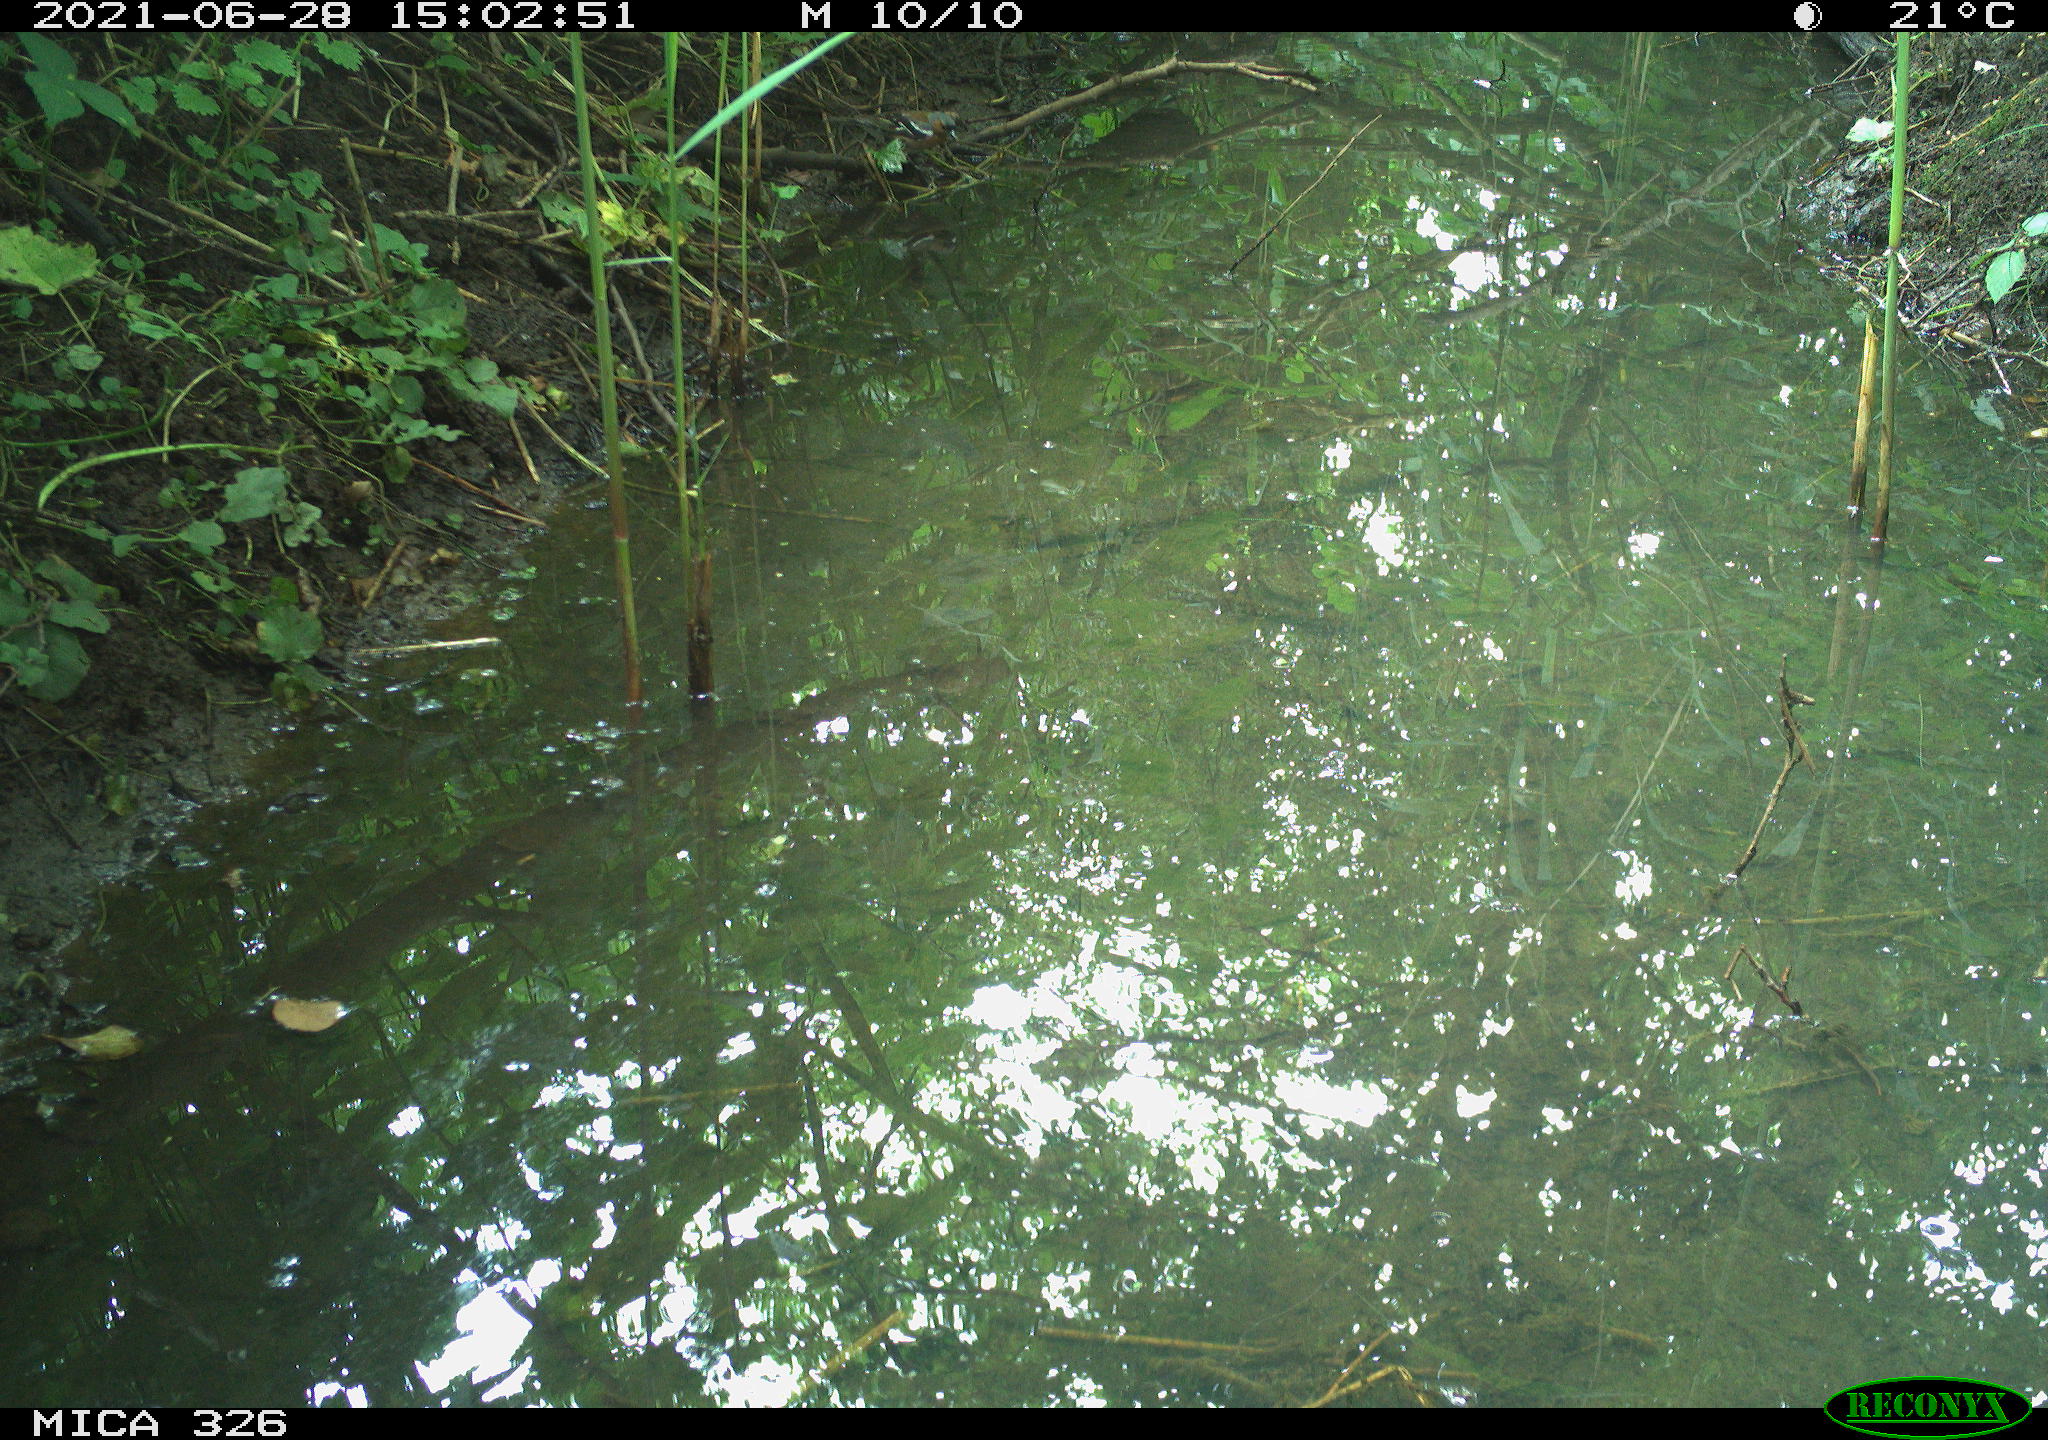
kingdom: Animalia
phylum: Chordata
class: Aves
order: Passeriformes
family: Turdidae
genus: Turdus
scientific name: Turdus merula
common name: Common blackbird
